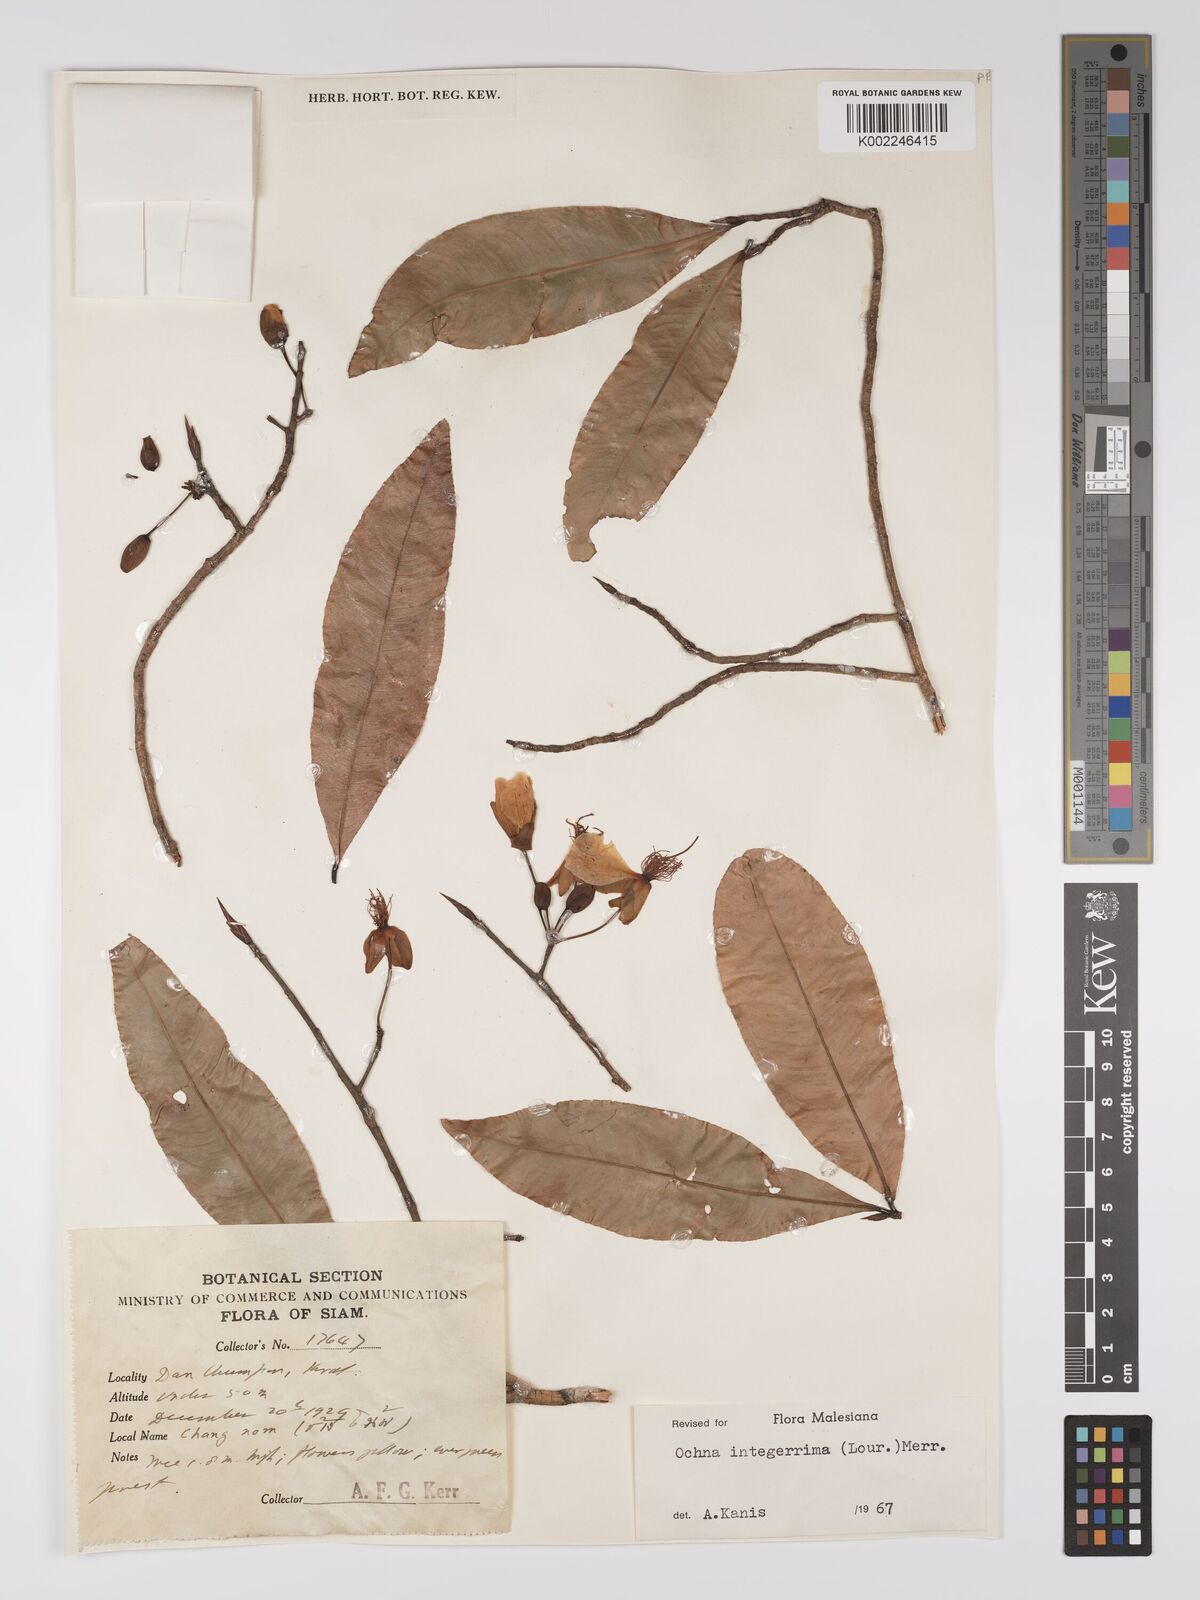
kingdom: Plantae
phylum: Tracheophyta
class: Magnoliopsida
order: Malpighiales
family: Ochnaceae
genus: Ochna
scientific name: Ochna integerrima
